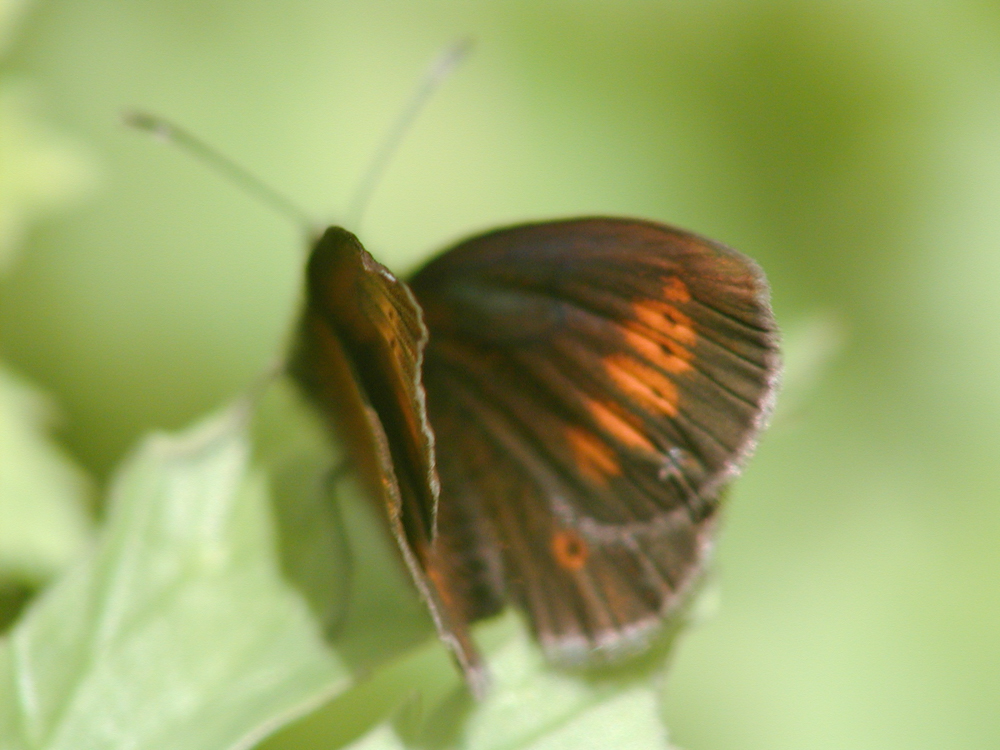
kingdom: Animalia
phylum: Arthropoda
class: Insecta
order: Lepidoptera
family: Nymphalidae
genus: Erebia
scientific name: Erebia melampus
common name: Lesser mountain ringlet
